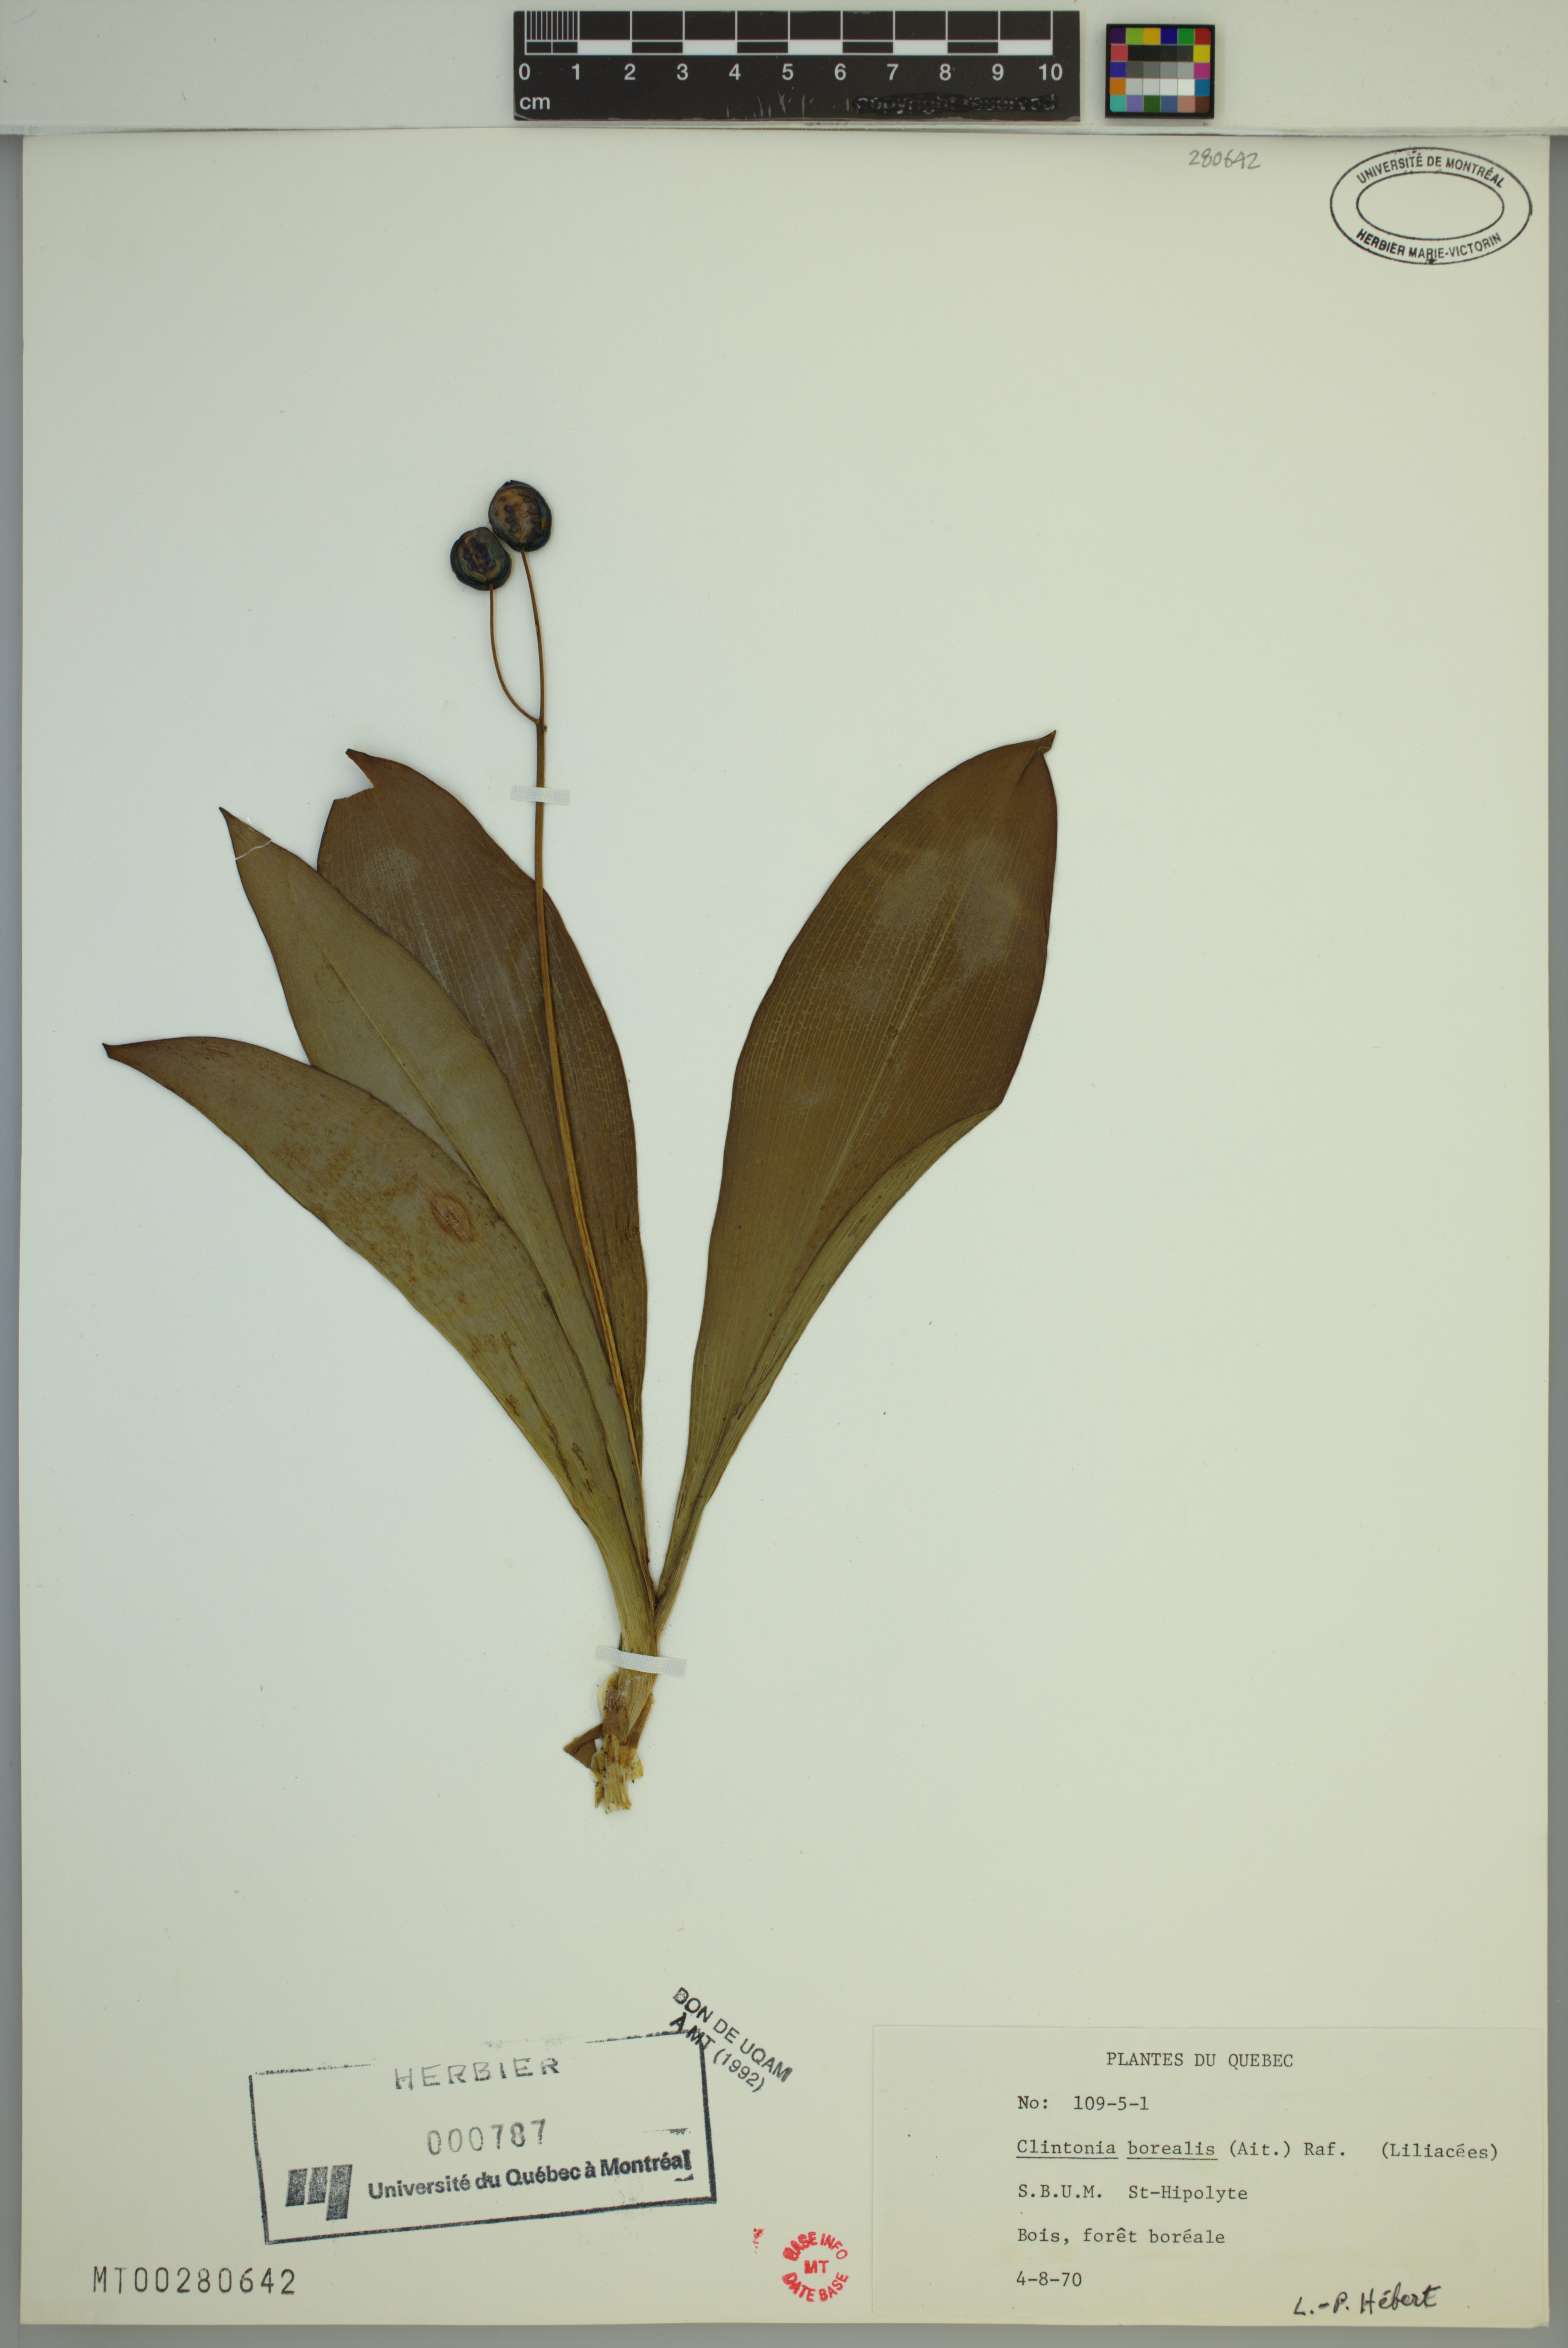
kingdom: Plantae
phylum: Tracheophyta
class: Liliopsida
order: Liliales
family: Liliaceae
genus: Clintonia
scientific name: Clintonia borealis
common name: Yellow clintonia
